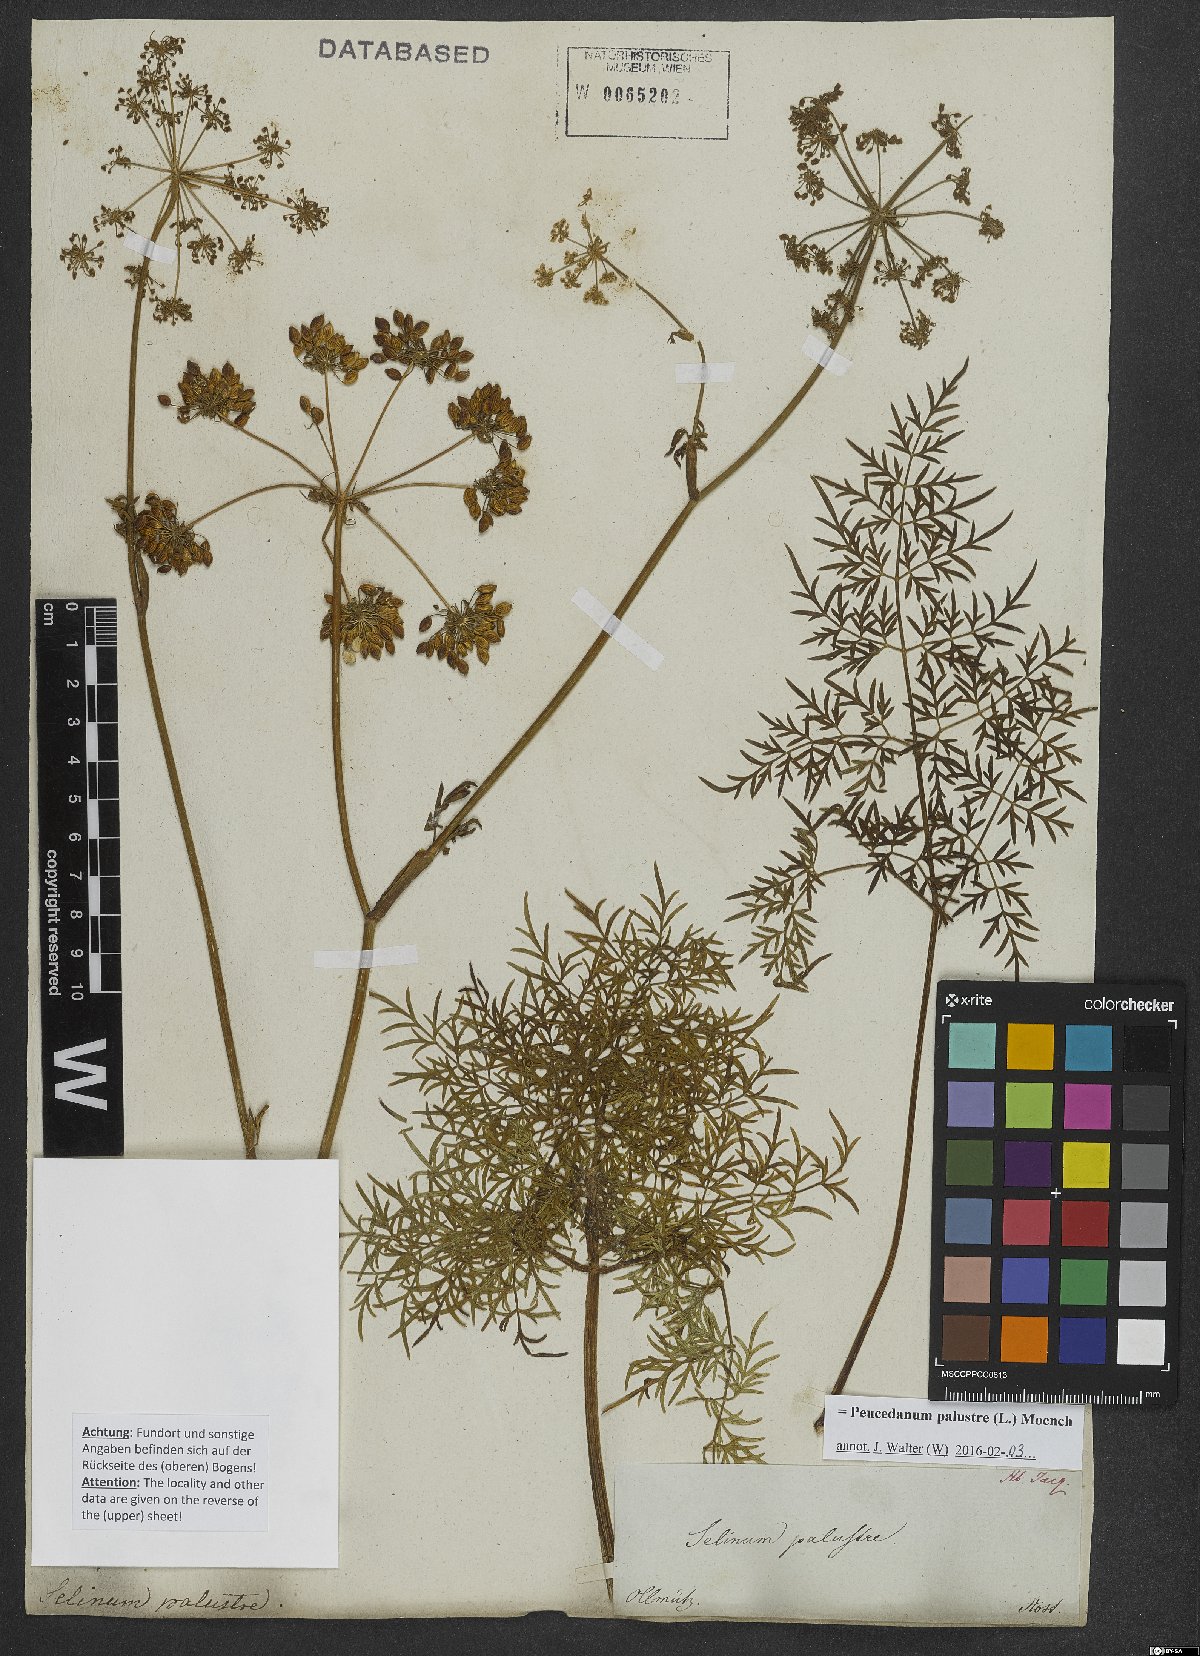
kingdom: Plantae
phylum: Tracheophyta
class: Magnoliopsida
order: Apiales
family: Apiaceae
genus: Thysselinum
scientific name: Thysselinum palustre
